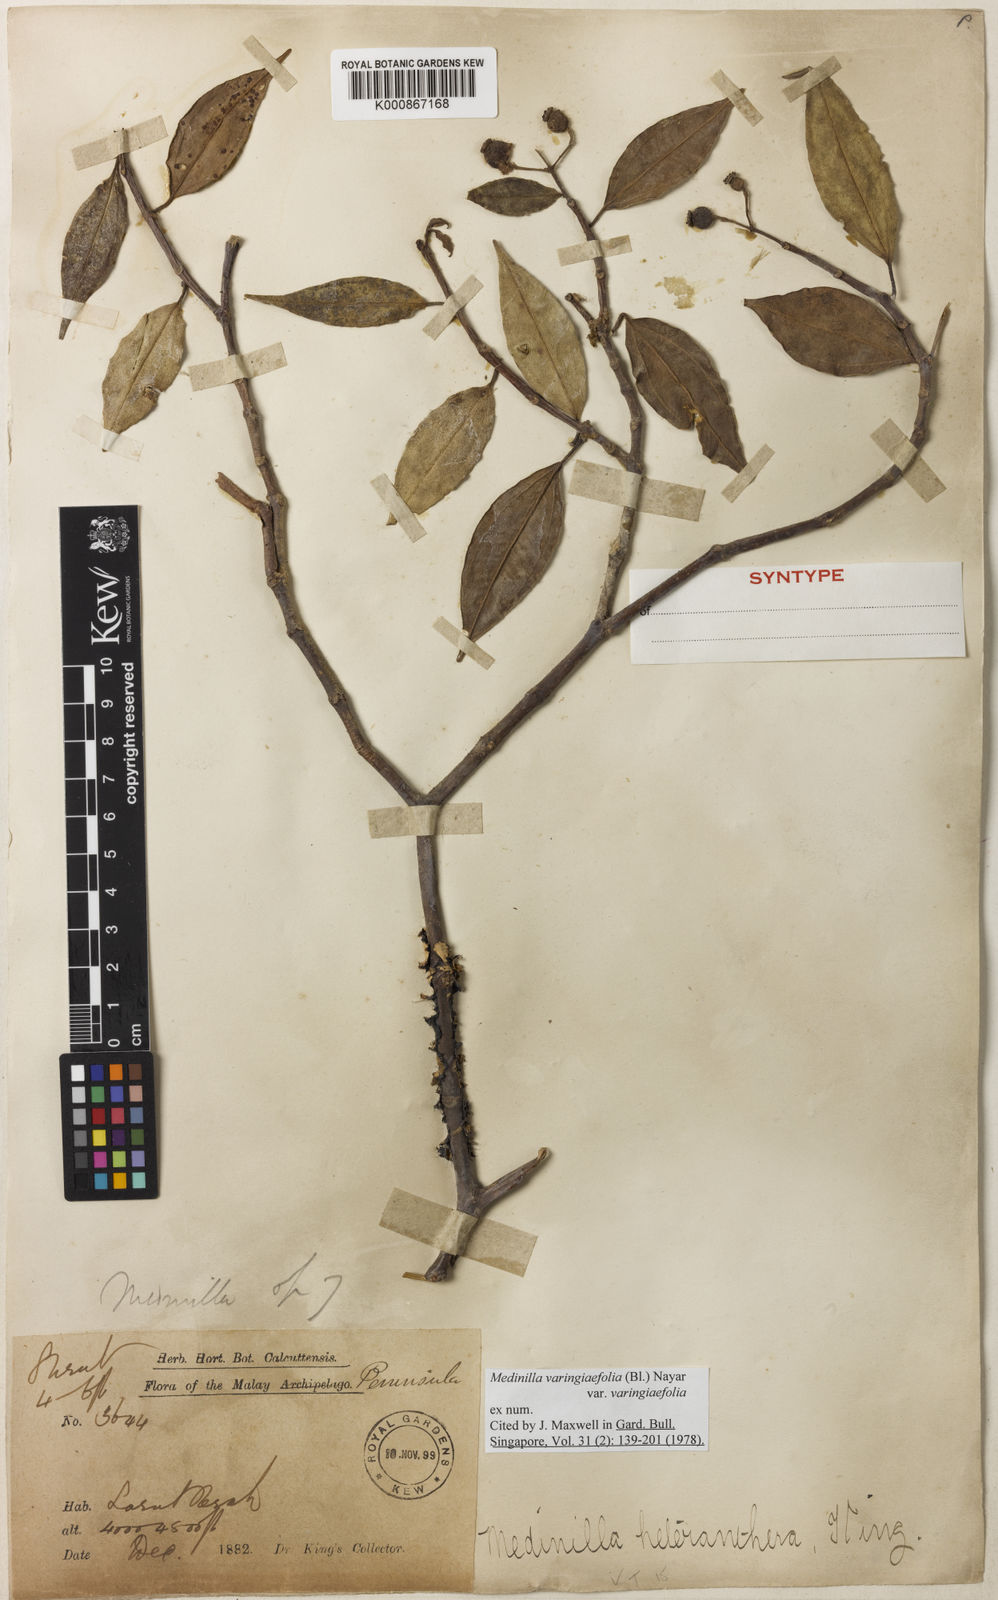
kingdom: Plantae
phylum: Tracheophyta
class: Magnoliopsida
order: Myrtales
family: Melastomataceae
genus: Pachycentria
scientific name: Pachycentria varingiaefolia
